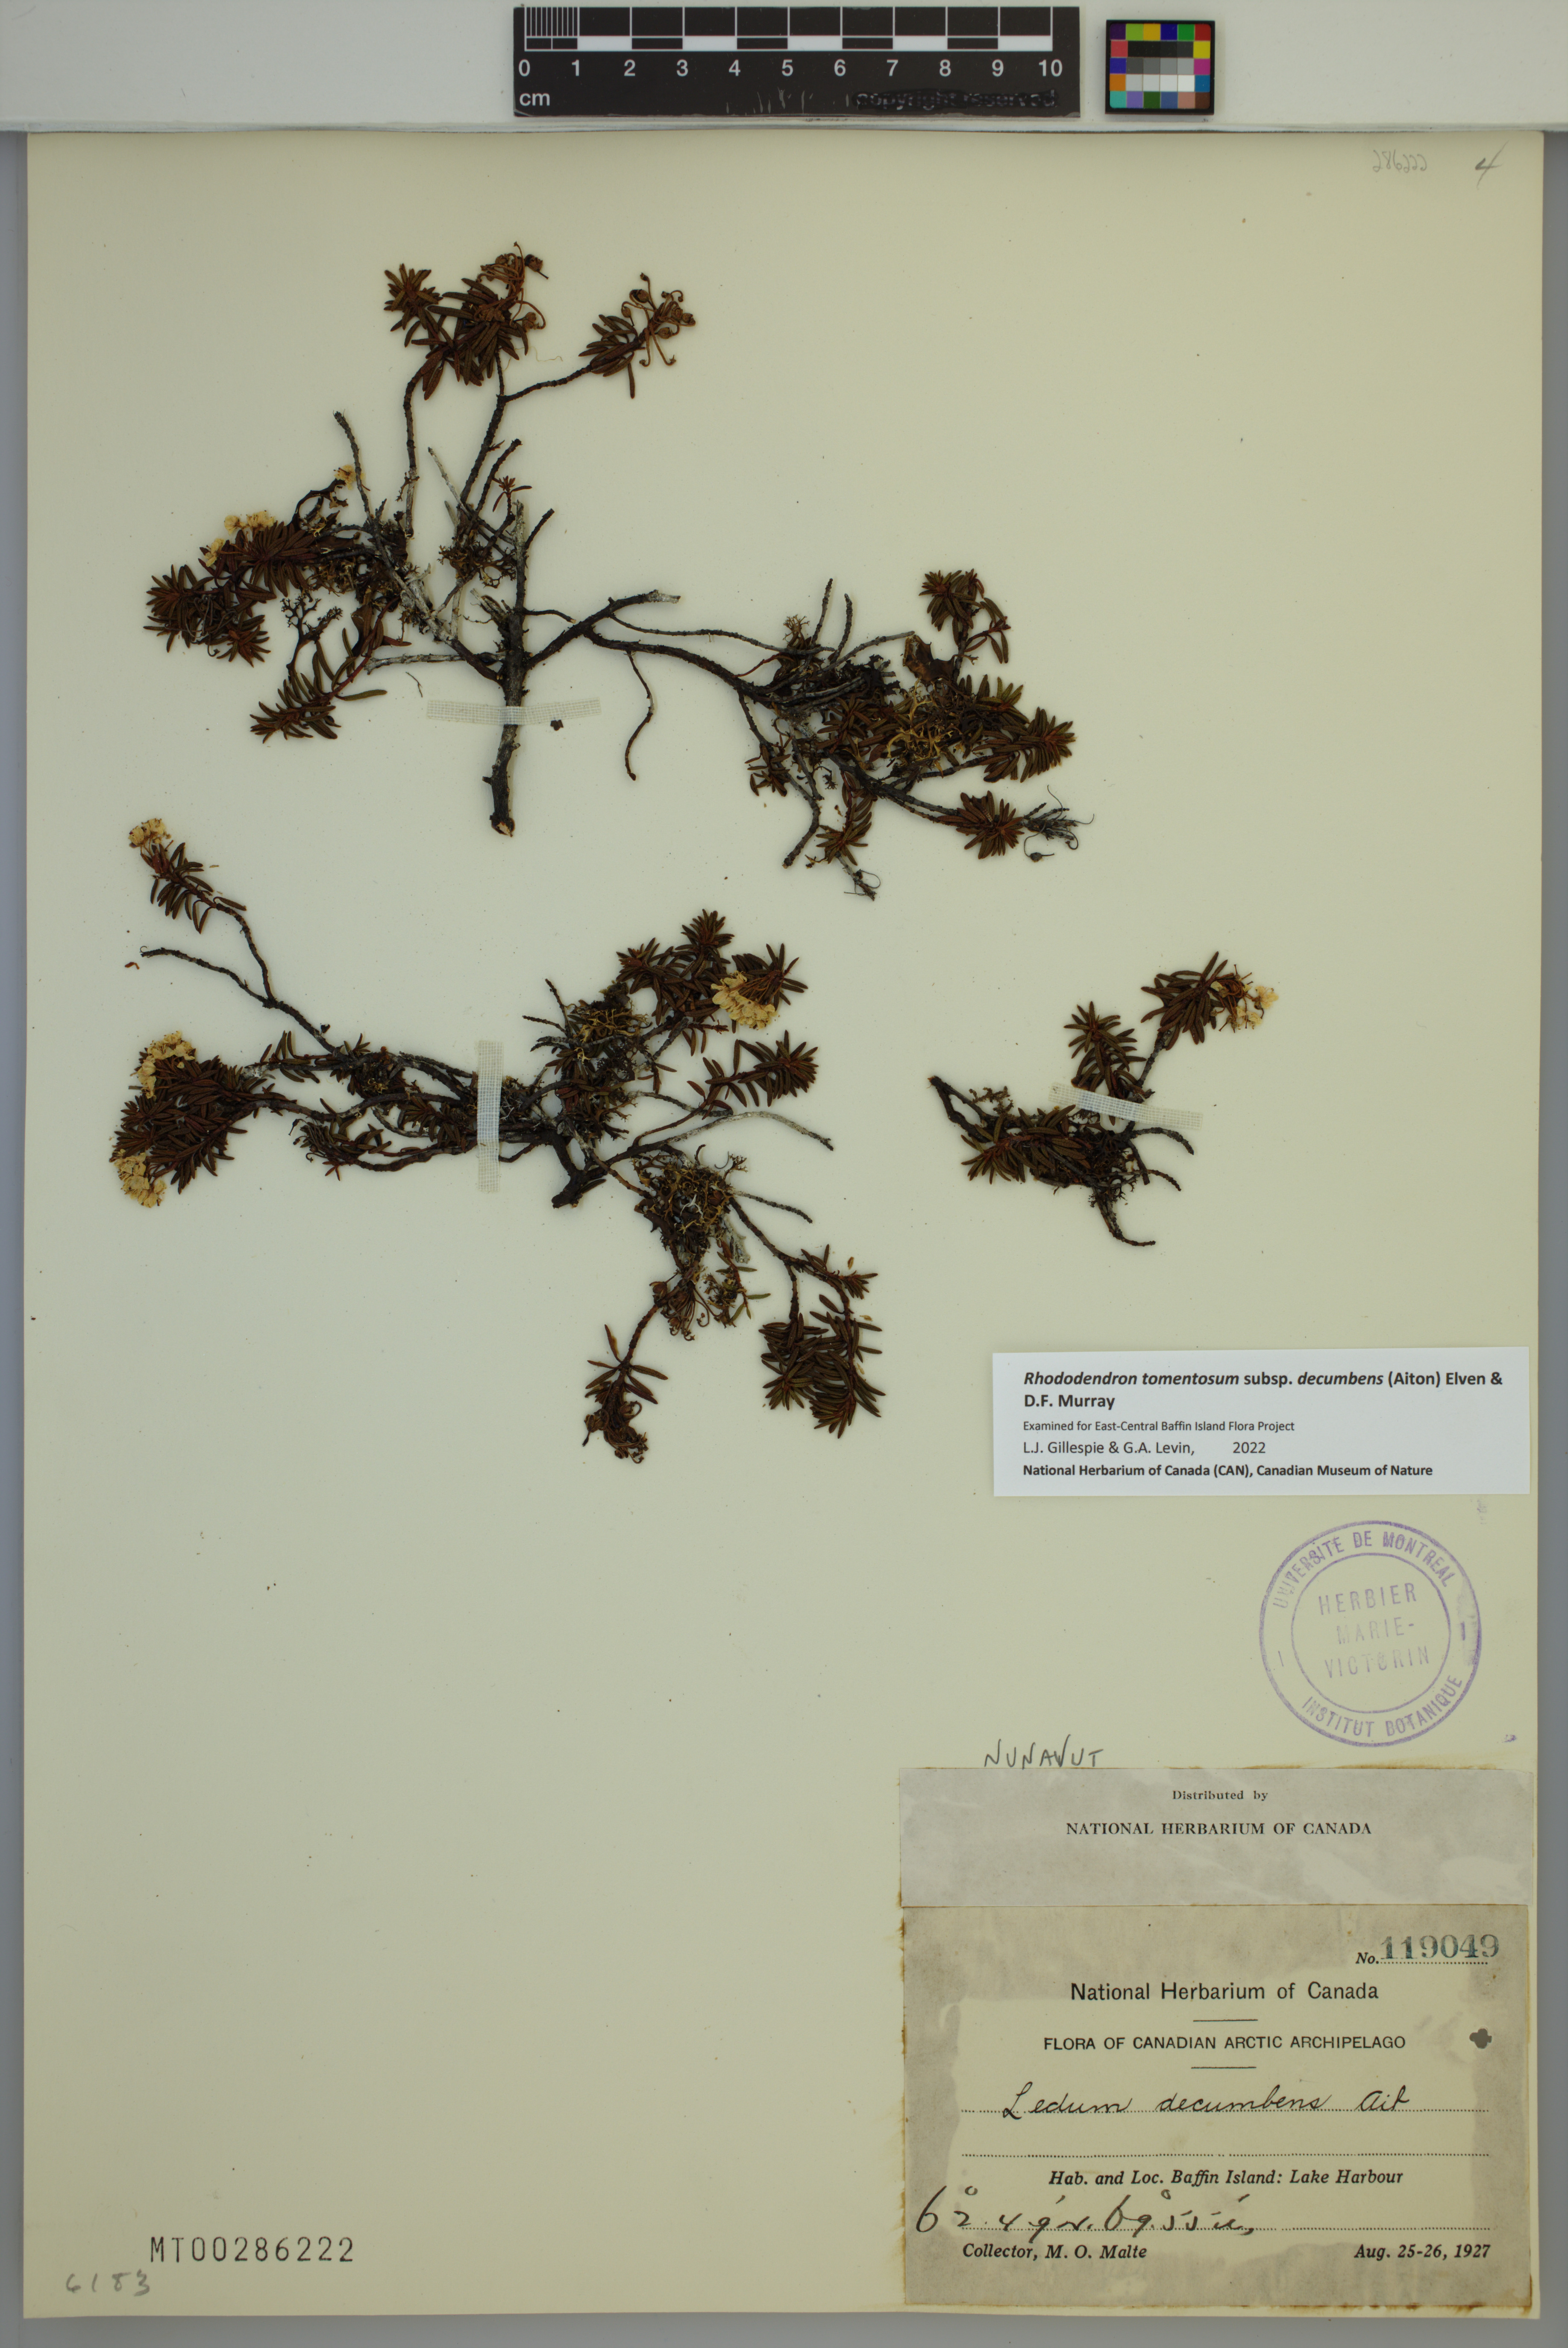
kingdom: Plantae
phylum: Tracheophyta
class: Magnoliopsida
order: Ericales
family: Ericaceae
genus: Rhododendron
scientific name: Rhododendron tomentosum
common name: Marsh labrador tea
